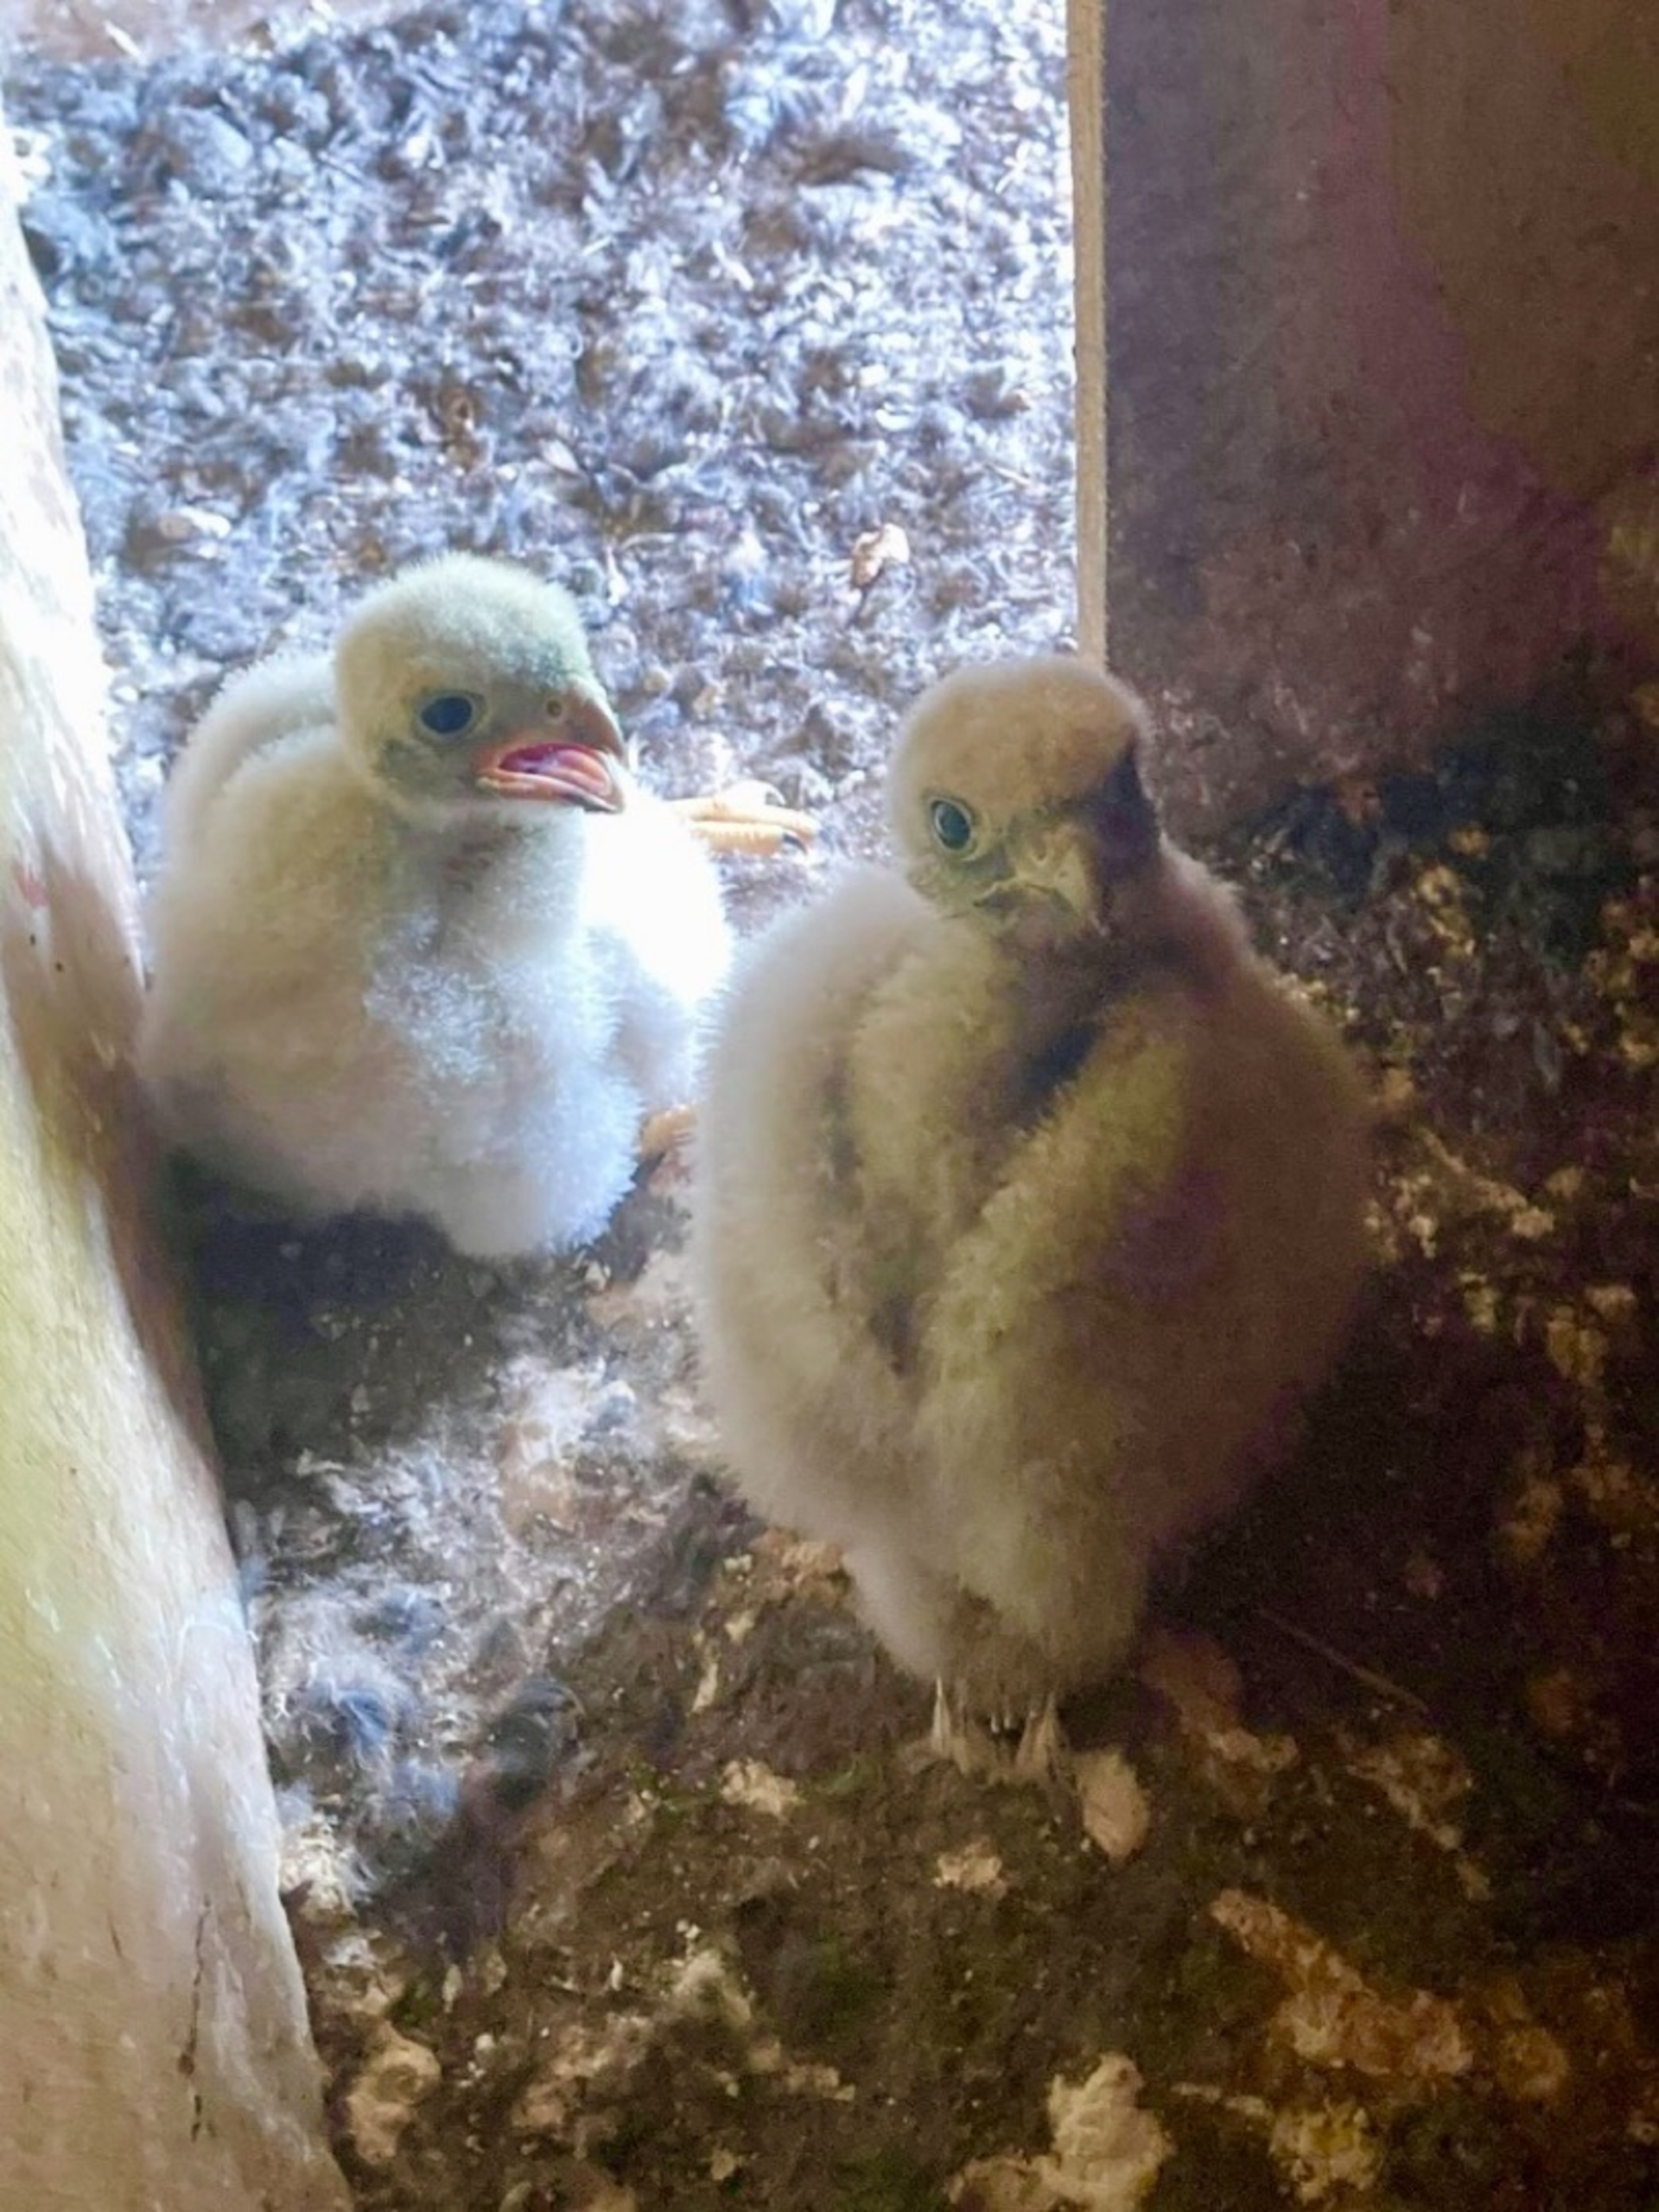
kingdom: Animalia
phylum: Chordata
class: Aves
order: Falconiformes
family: Falconidae
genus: Falco
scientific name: Falco tinnunculus
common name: Tårnfalk
